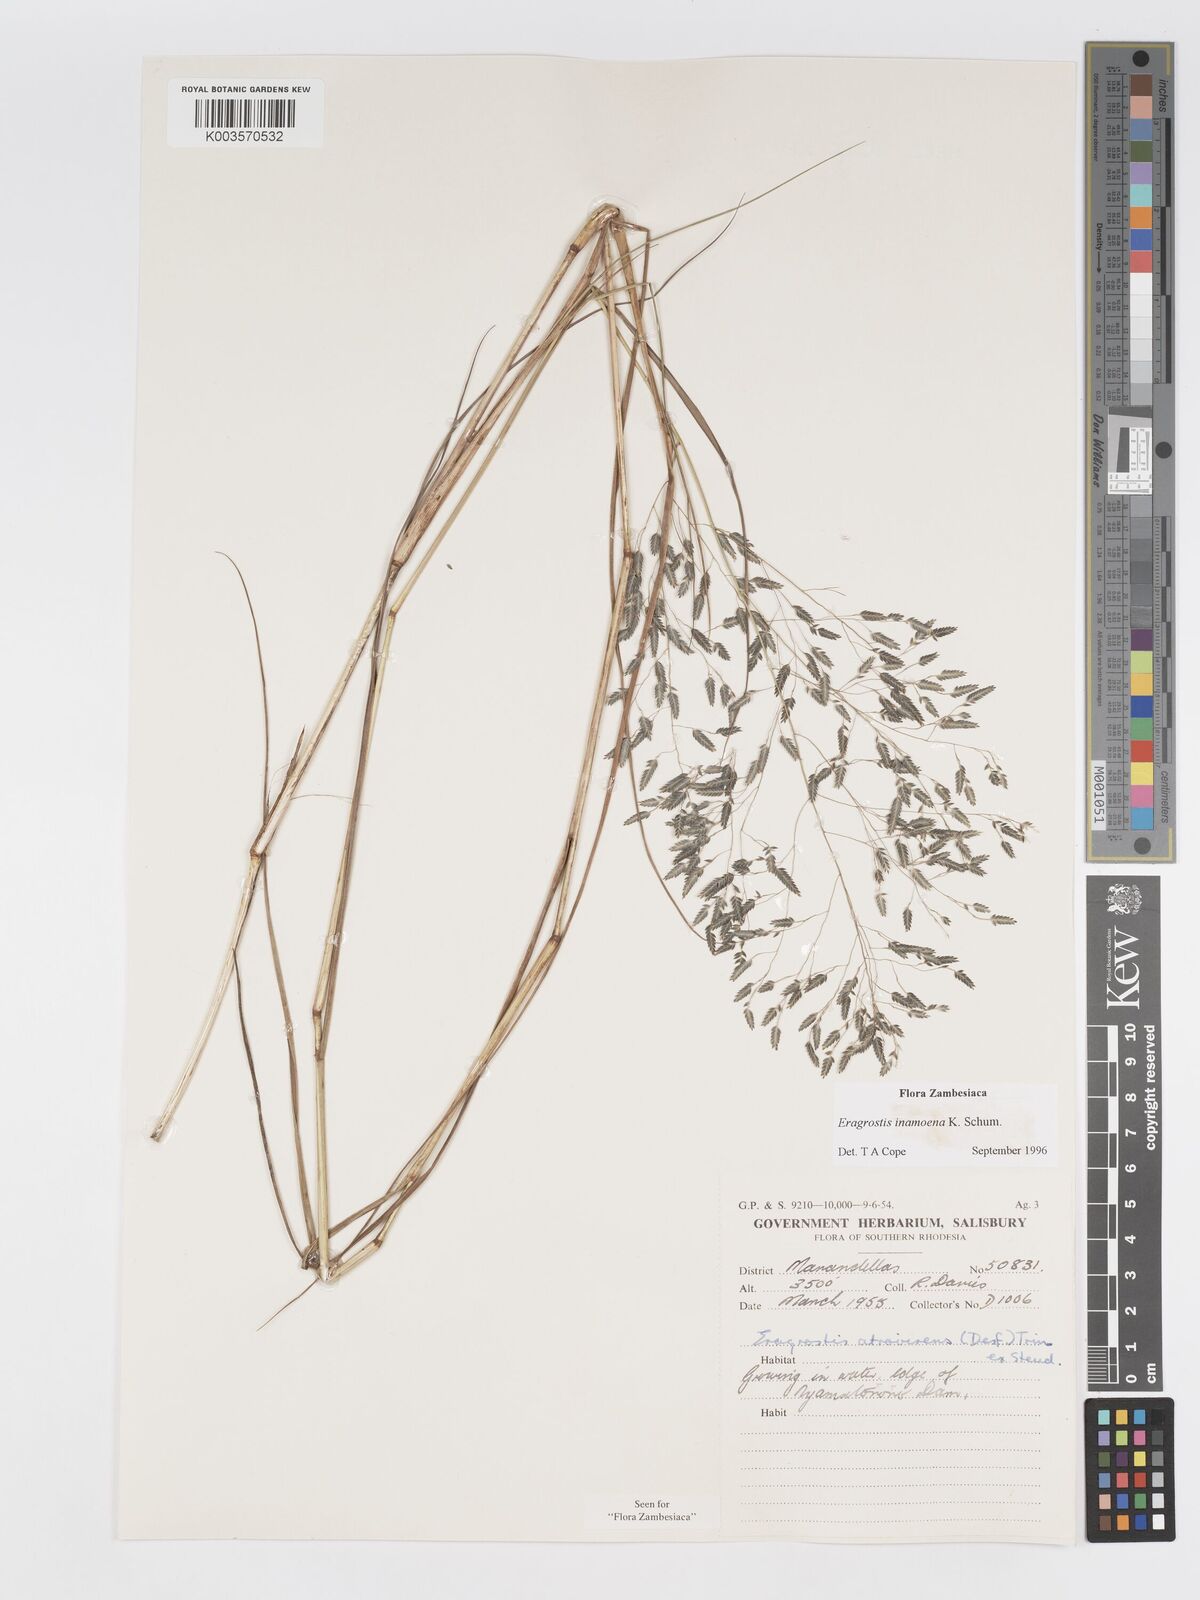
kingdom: Plantae
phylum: Tracheophyta
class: Liliopsida
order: Poales
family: Poaceae
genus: Eragrostis
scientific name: Eragrostis inamoena
